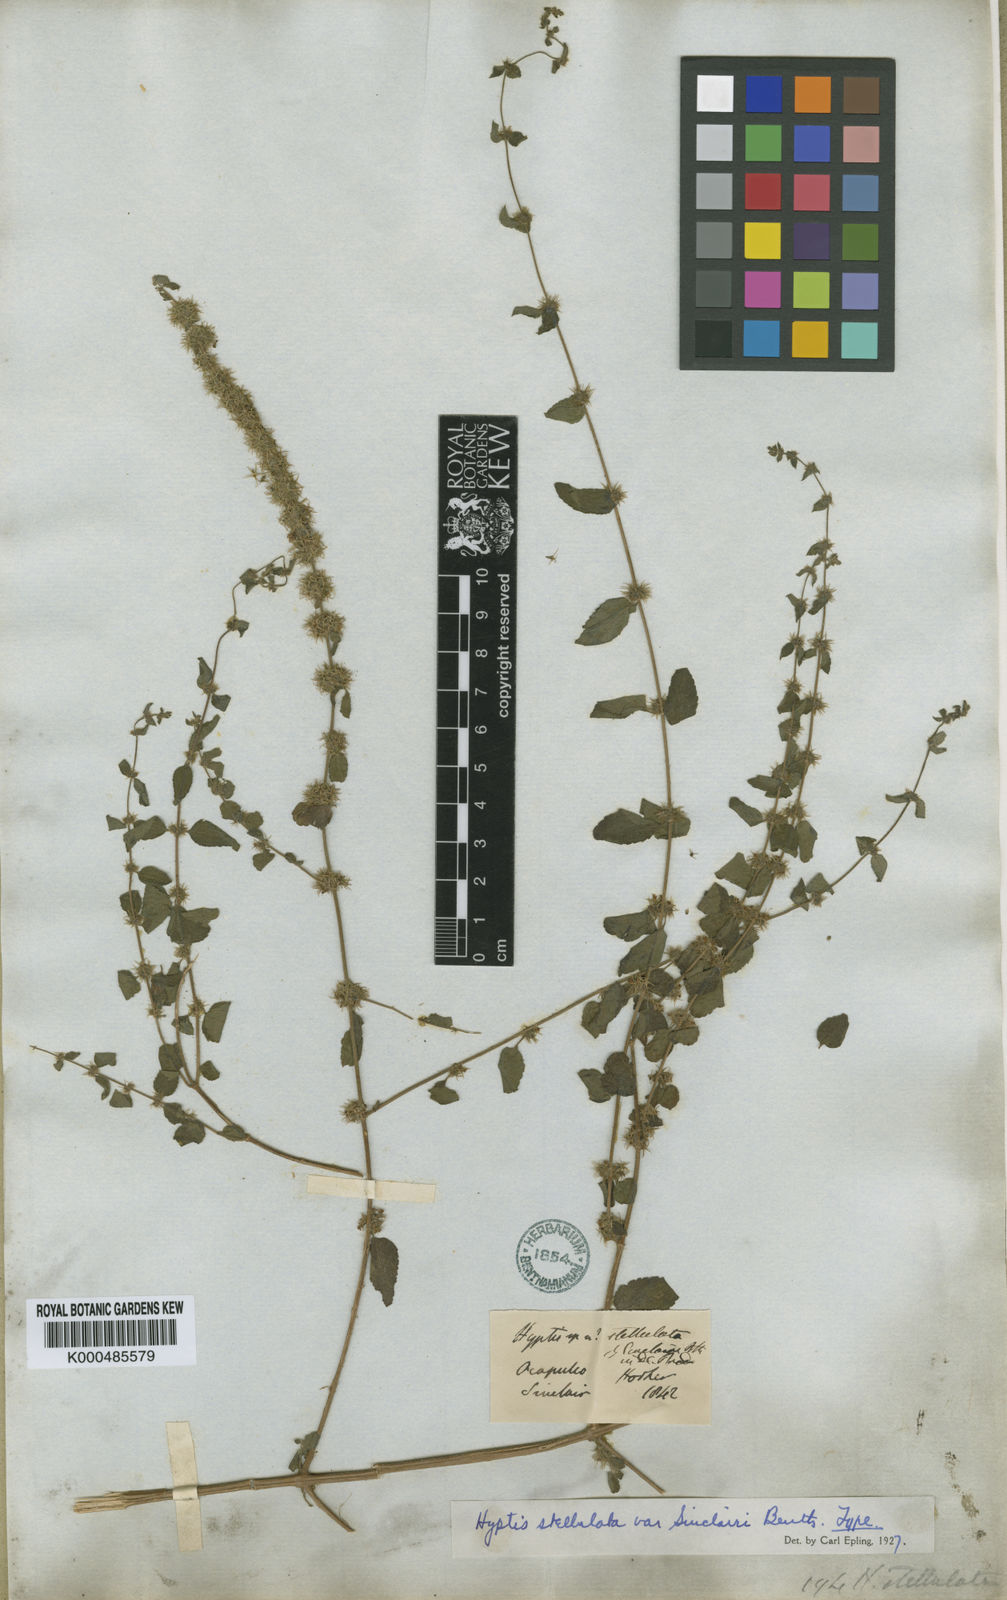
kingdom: Plantae
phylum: Tracheophyta
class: Magnoliopsida
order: Lamiales
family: Lamiaceae
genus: Asterohyptis
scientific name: Asterohyptis
